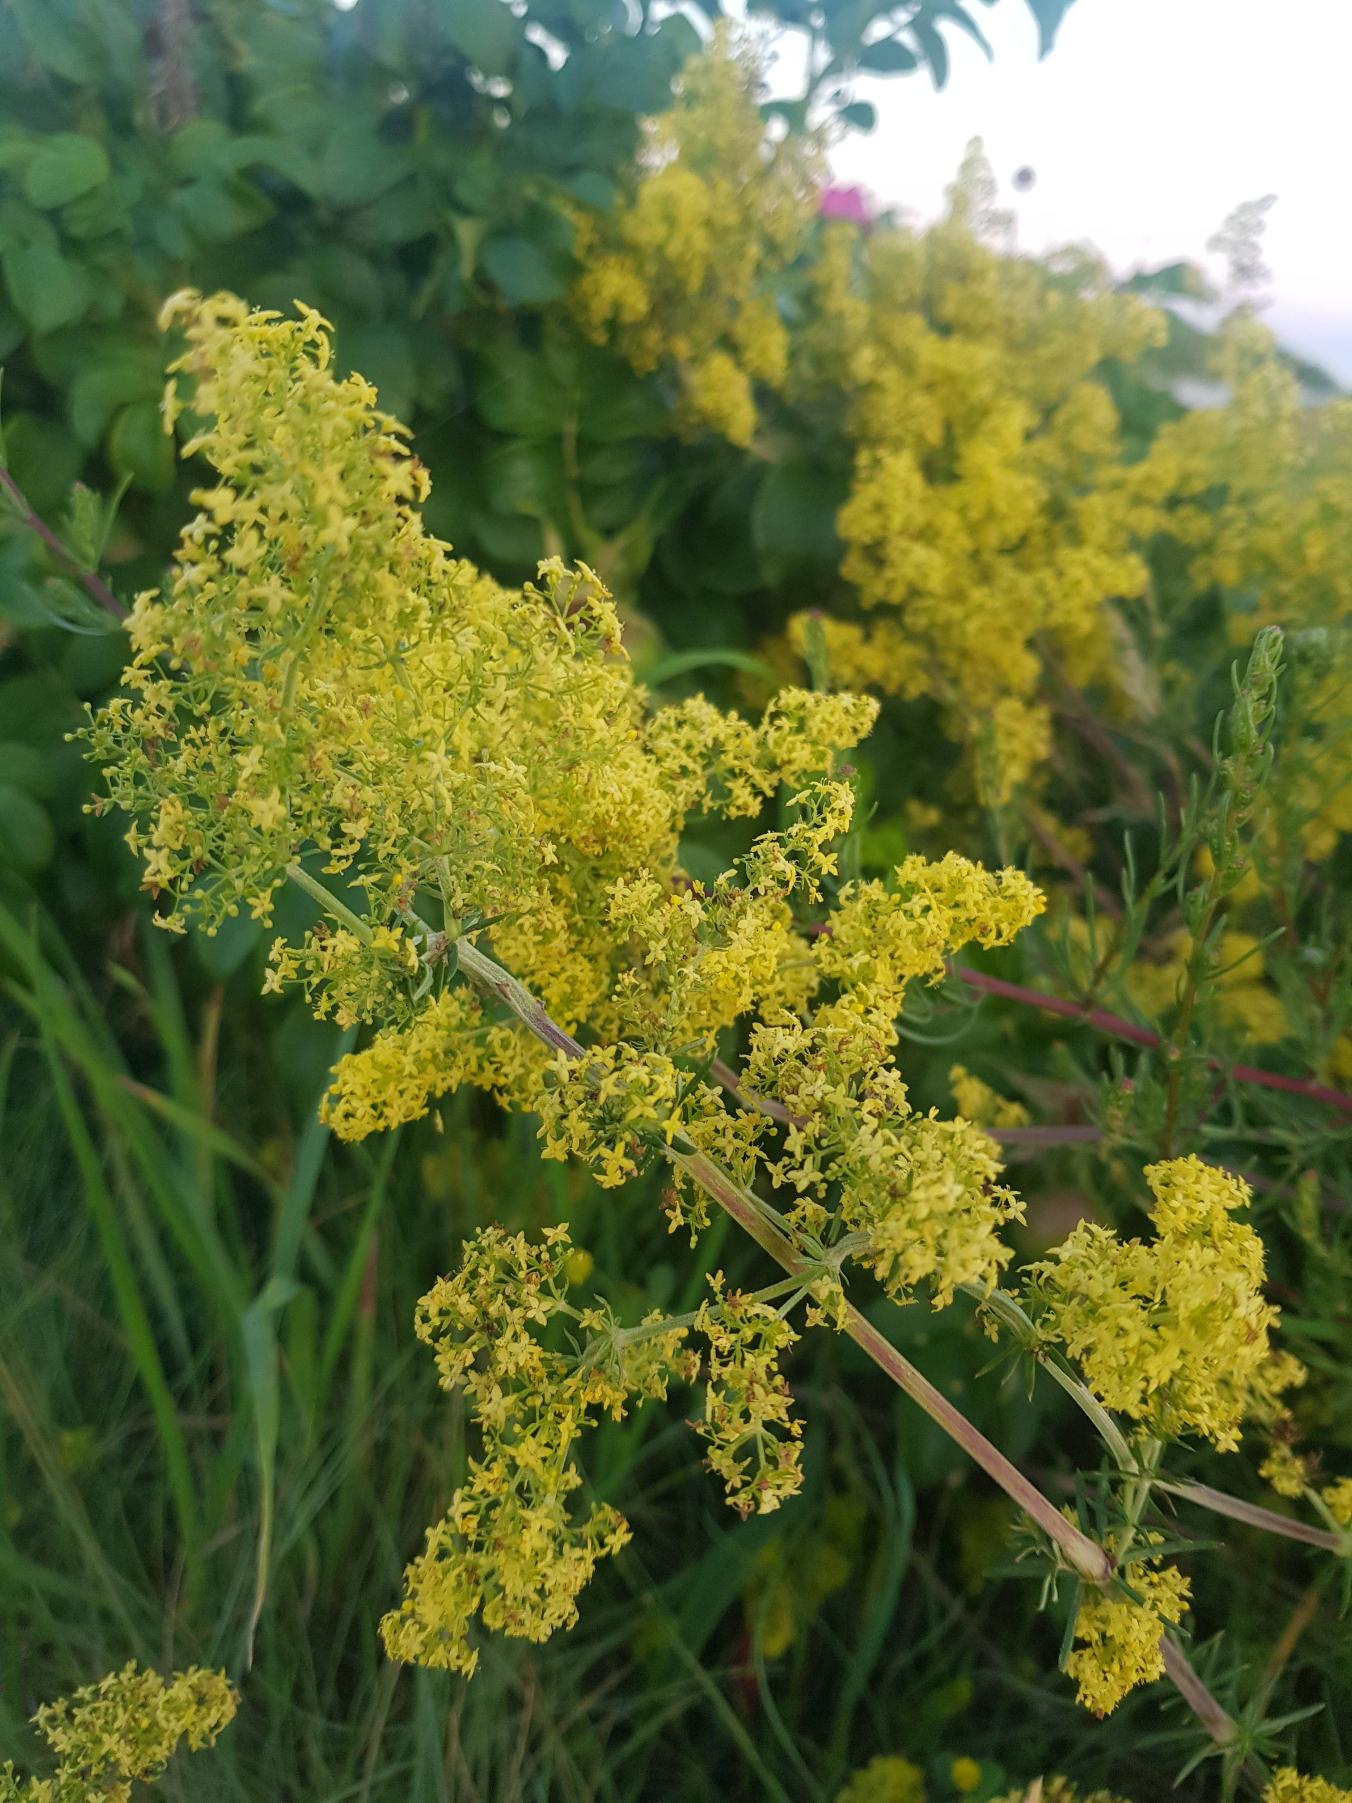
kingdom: Plantae
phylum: Tracheophyta
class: Magnoliopsida
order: Gentianales
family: Rubiaceae
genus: Galium
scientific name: Galium verum
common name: Gul snerre
